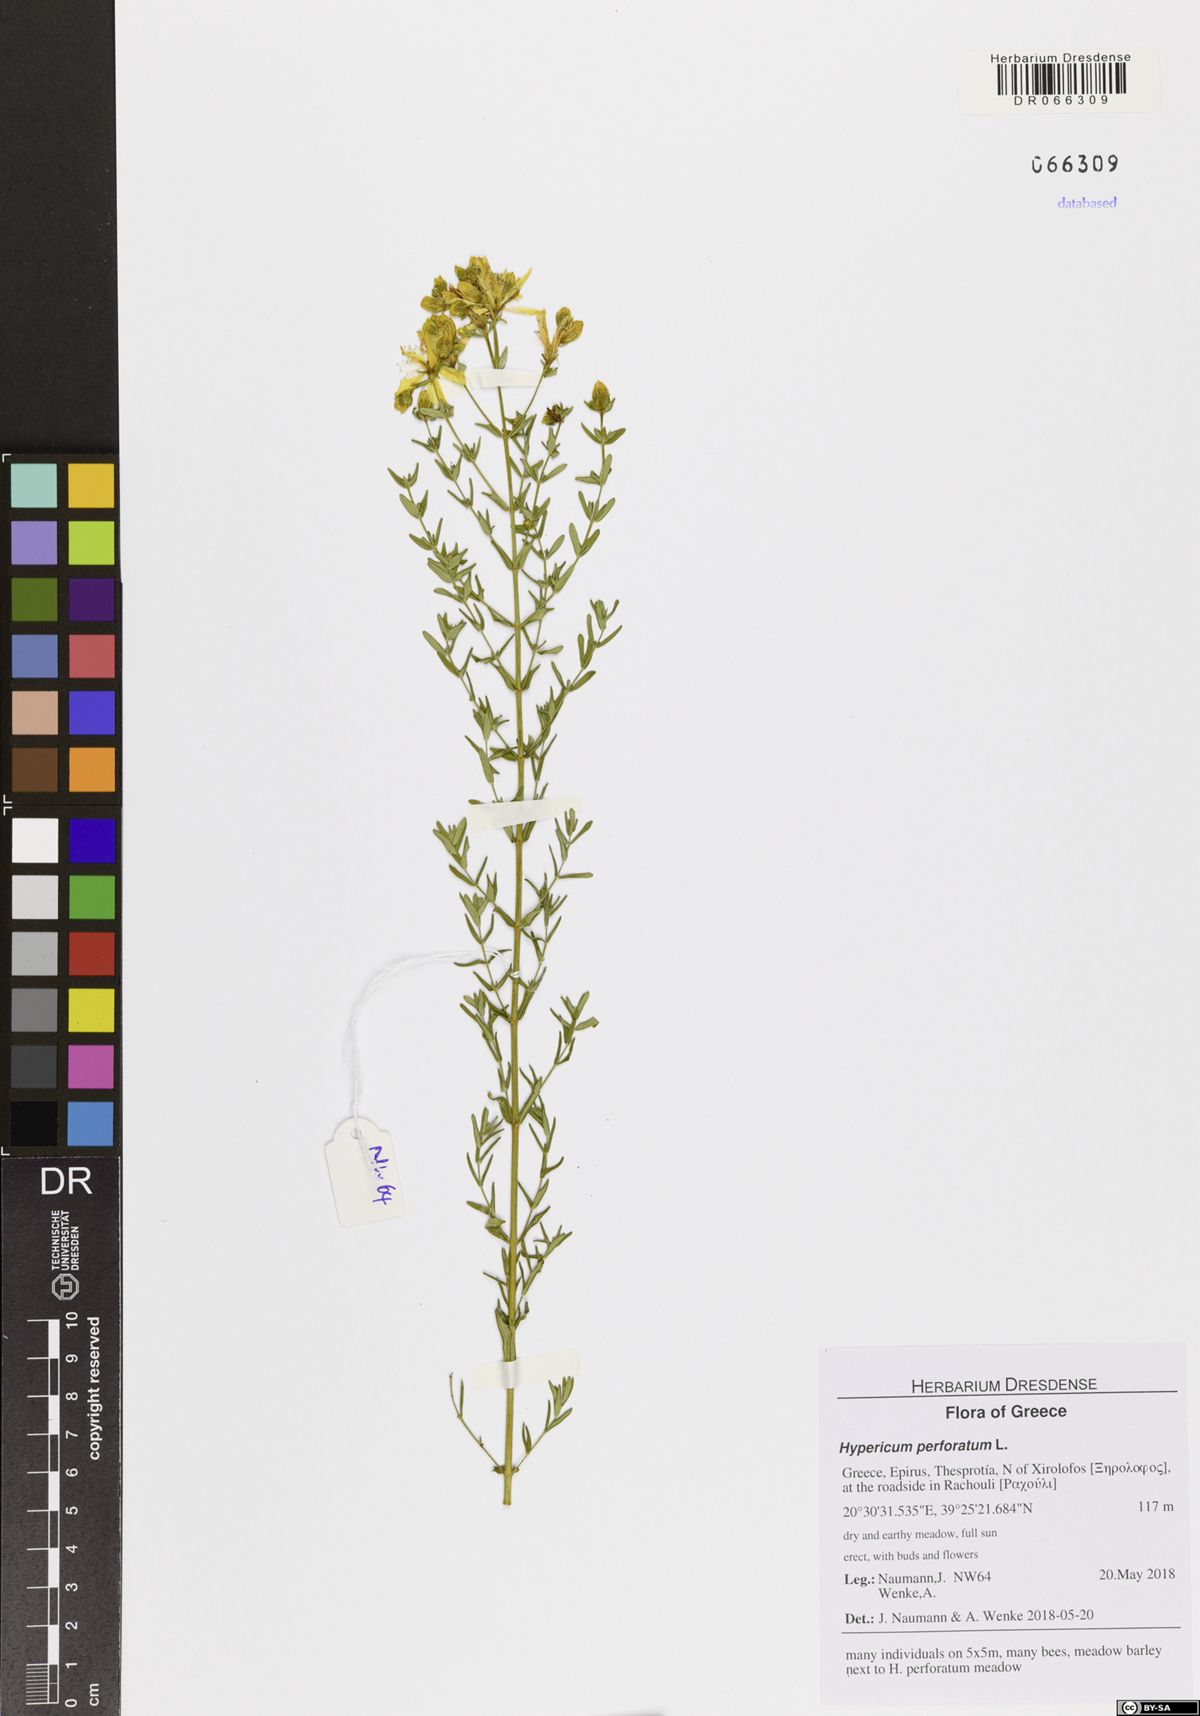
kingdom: Plantae
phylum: Tracheophyta
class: Magnoliopsida
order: Malpighiales
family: Hypericaceae
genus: Hypericum
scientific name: Hypericum perforatum
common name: Common st. johnswort
